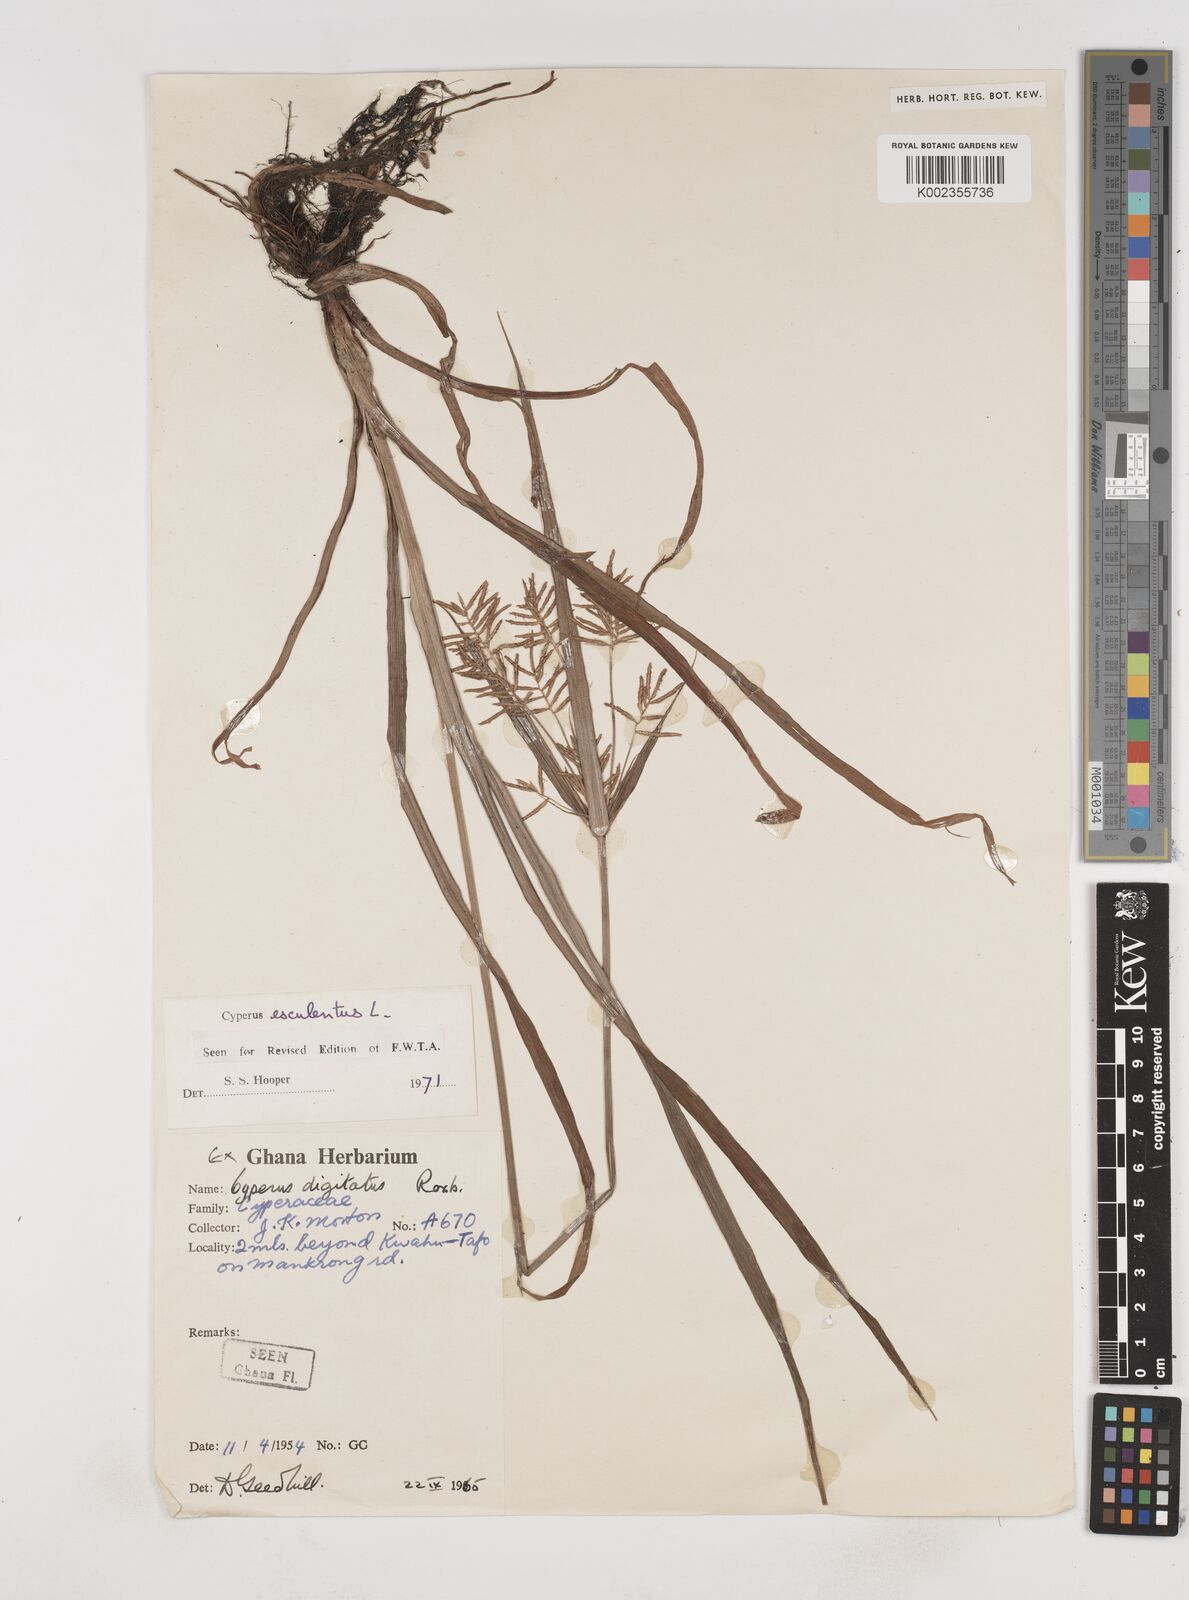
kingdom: Plantae
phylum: Tracheophyta
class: Liliopsida
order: Poales
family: Cyperaceae
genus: Cyperus
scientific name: Cyperus esculentus
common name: Yellow nutsedge
